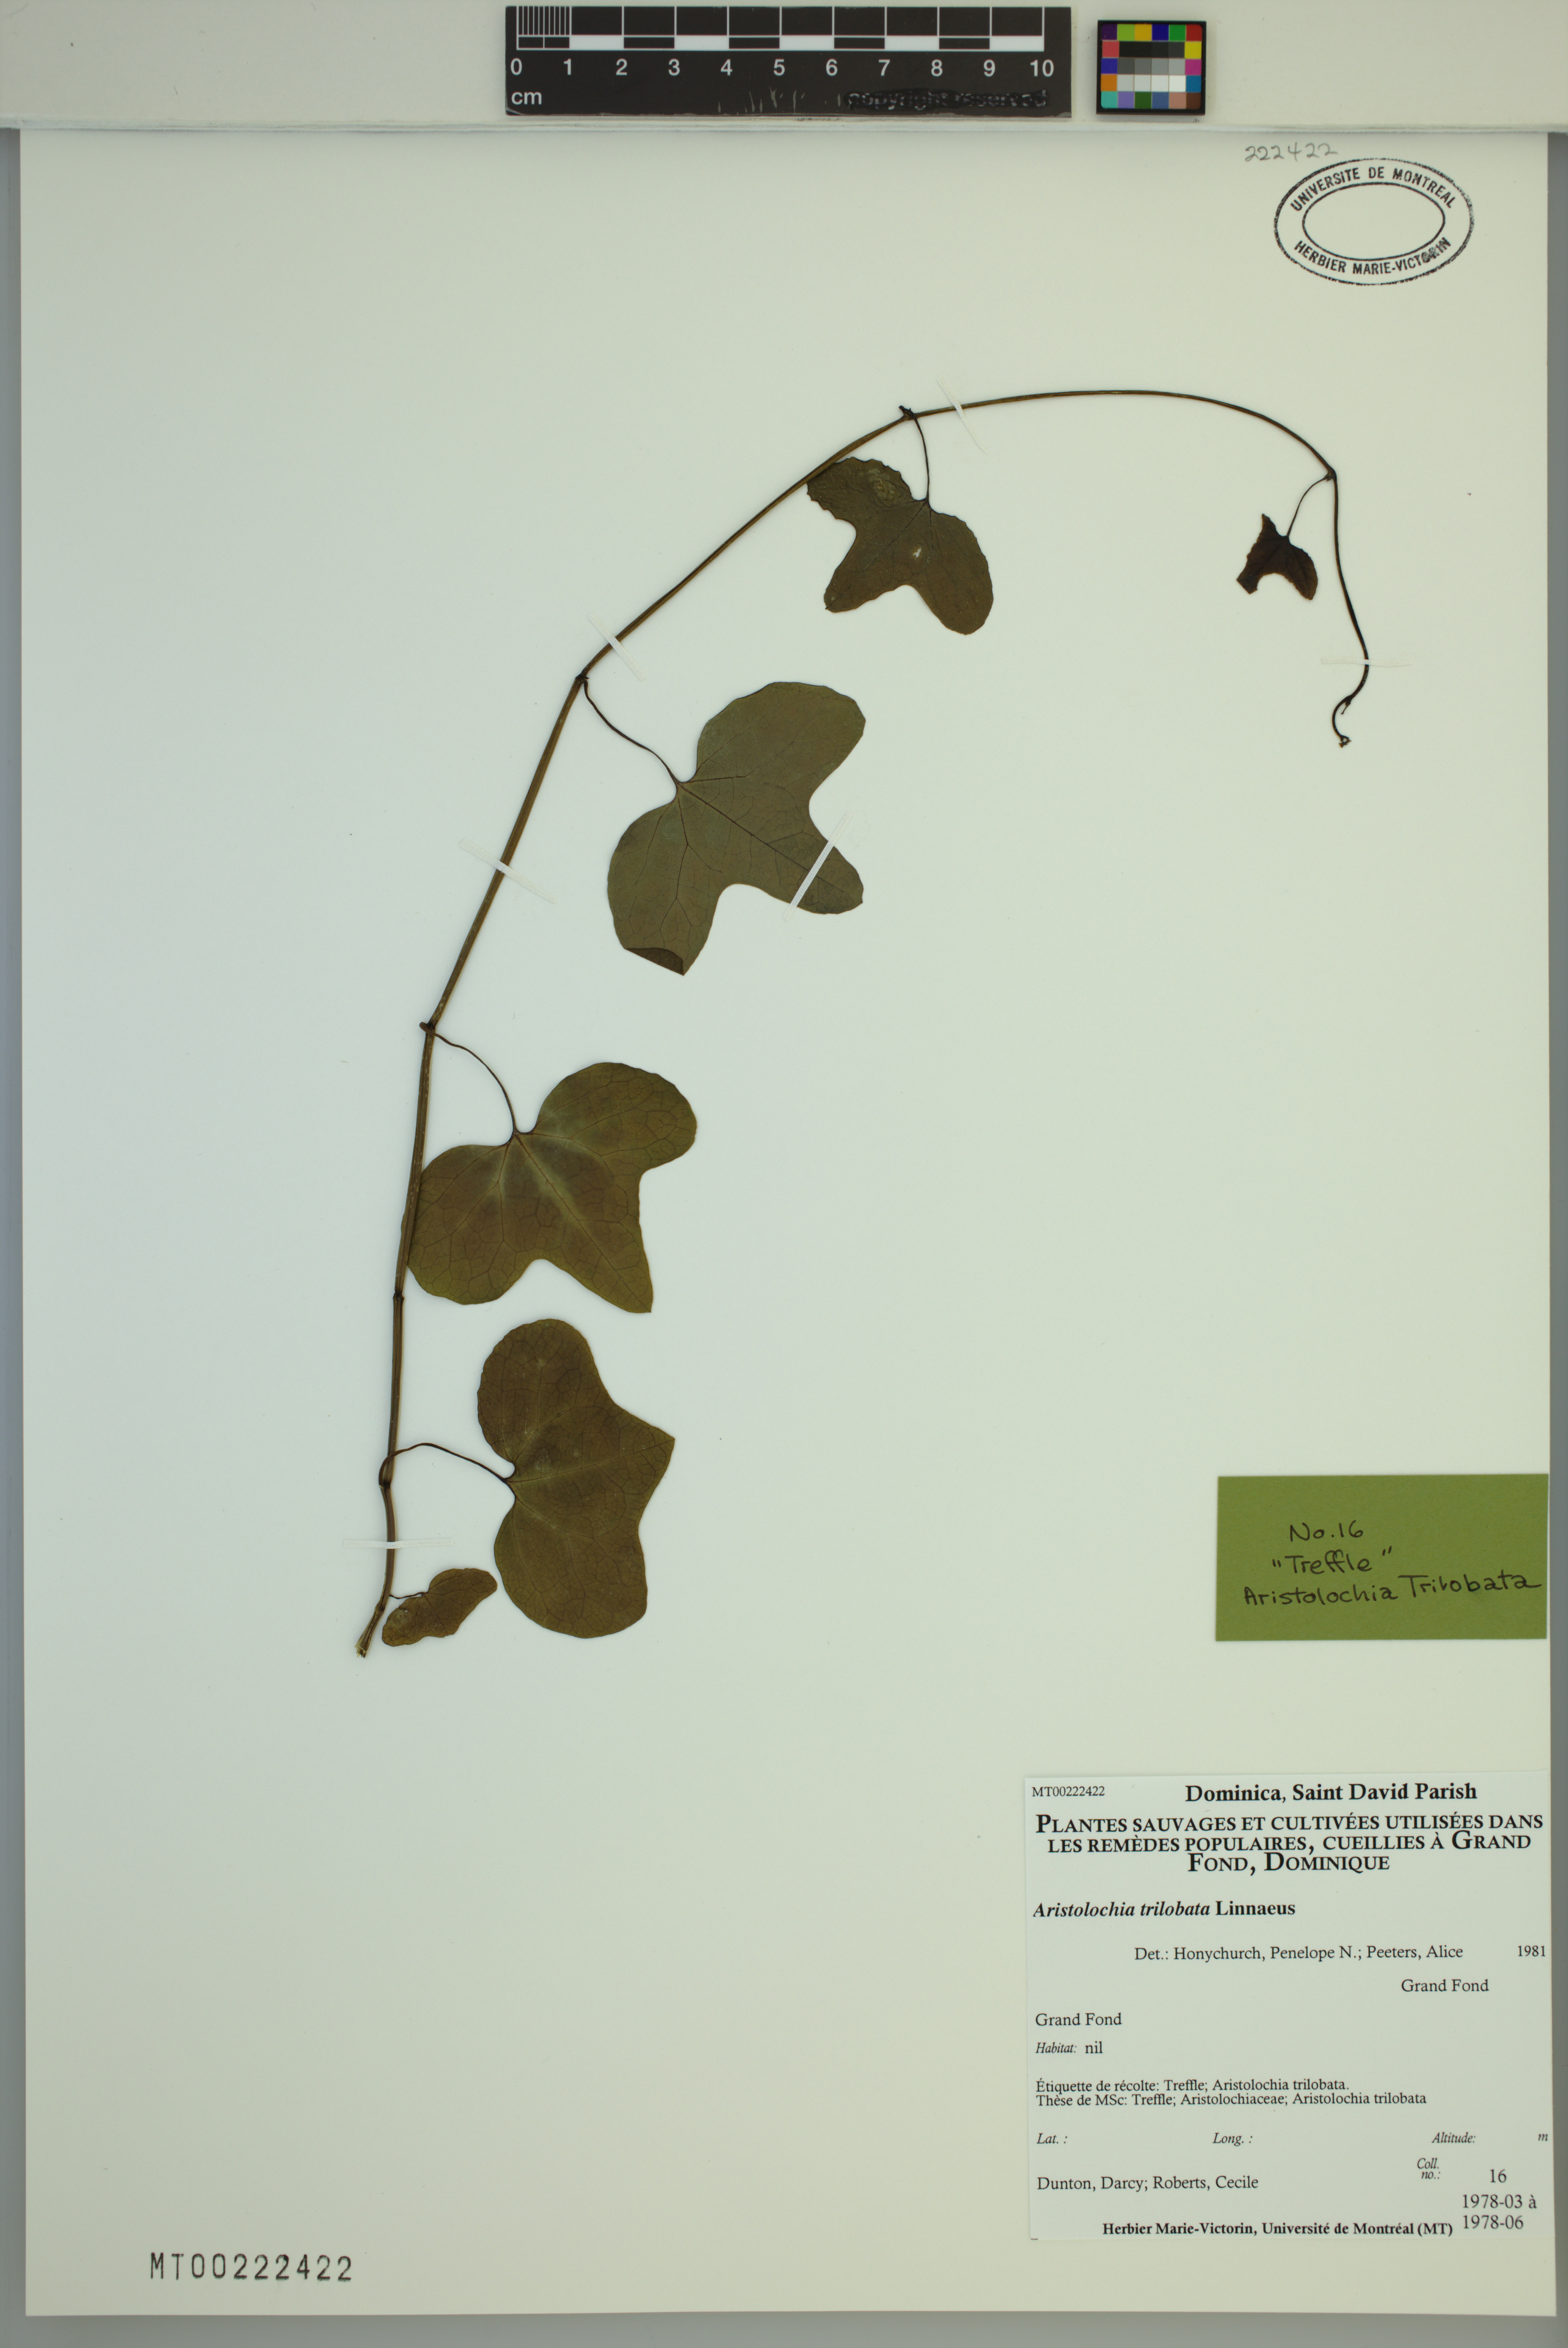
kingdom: Plantae
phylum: Tracheophyta
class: Magnoliopsida
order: Piperales
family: Aristolochiaceae
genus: Aristolochia
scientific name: Aristolochia trilobata
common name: Dutchman's pipe
